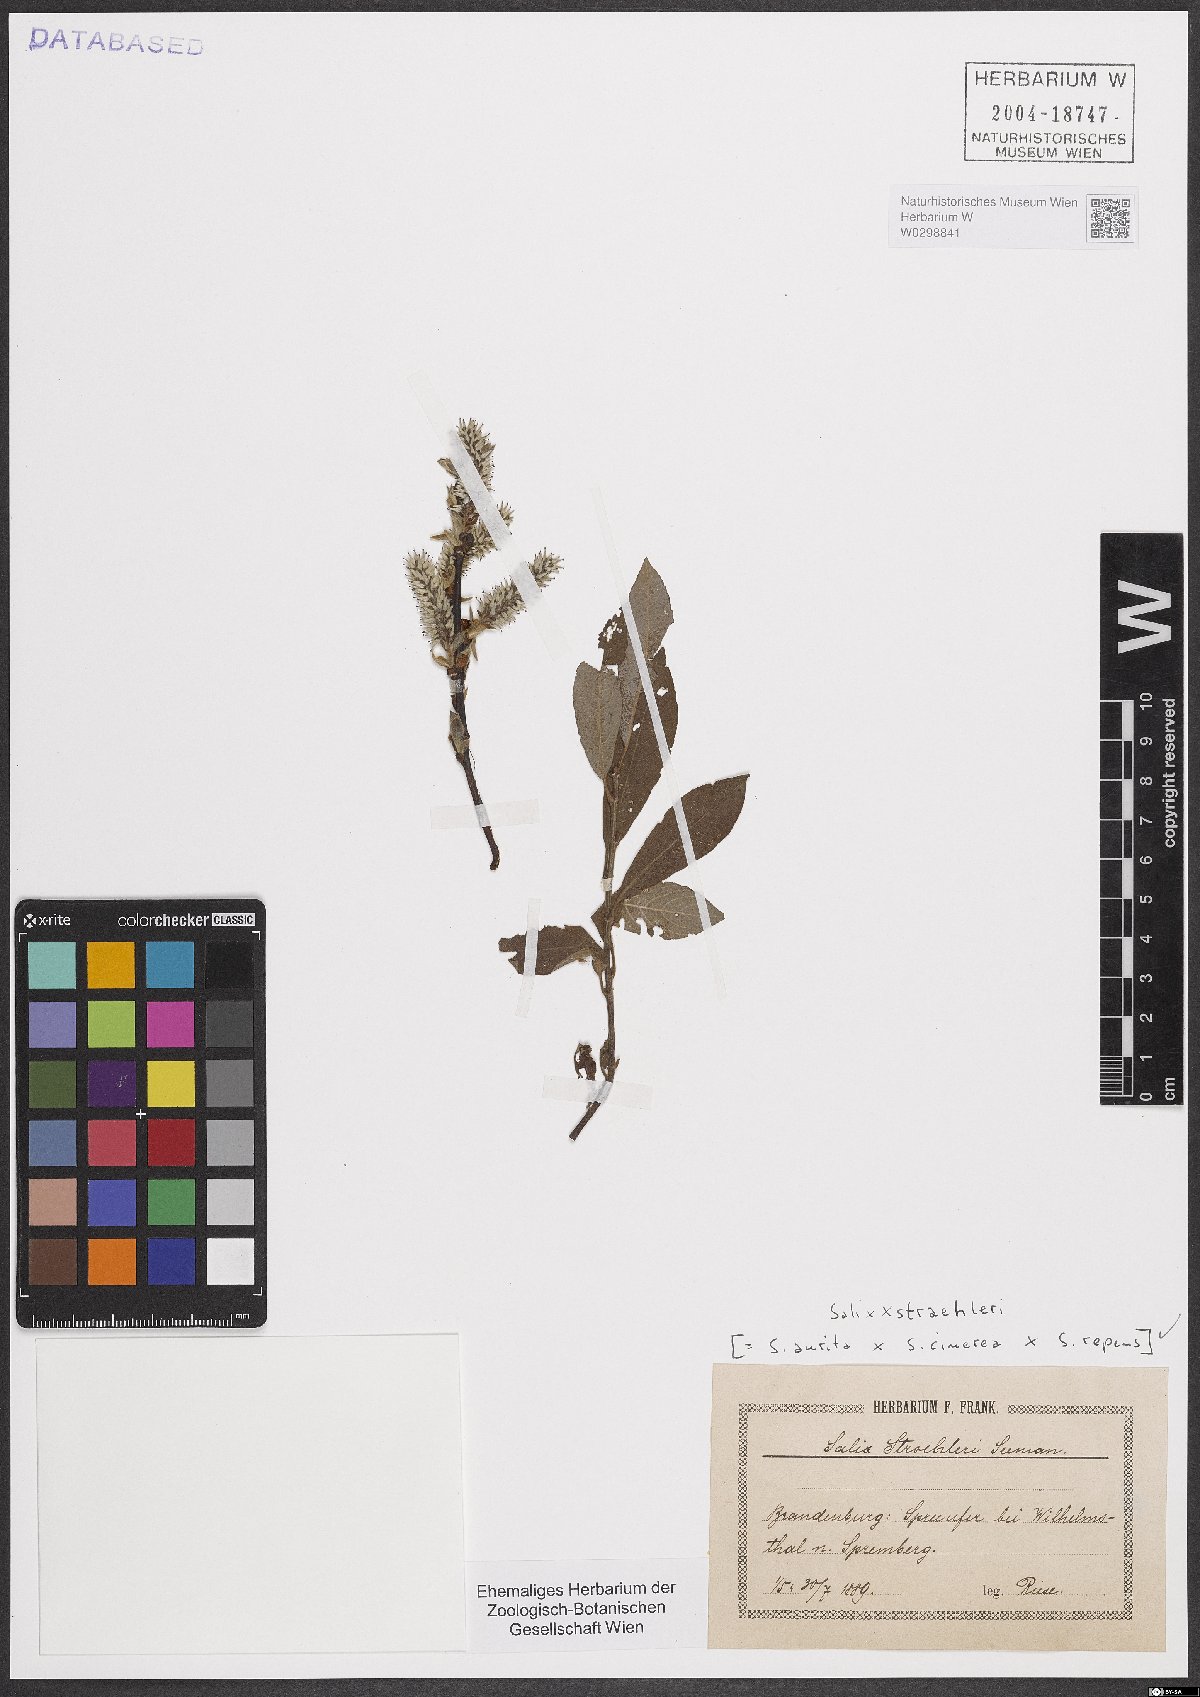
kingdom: Plantae
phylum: Tracheophyta
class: Magnoliopsida
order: Malpighiales
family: Salicaceae
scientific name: Salicaceae
